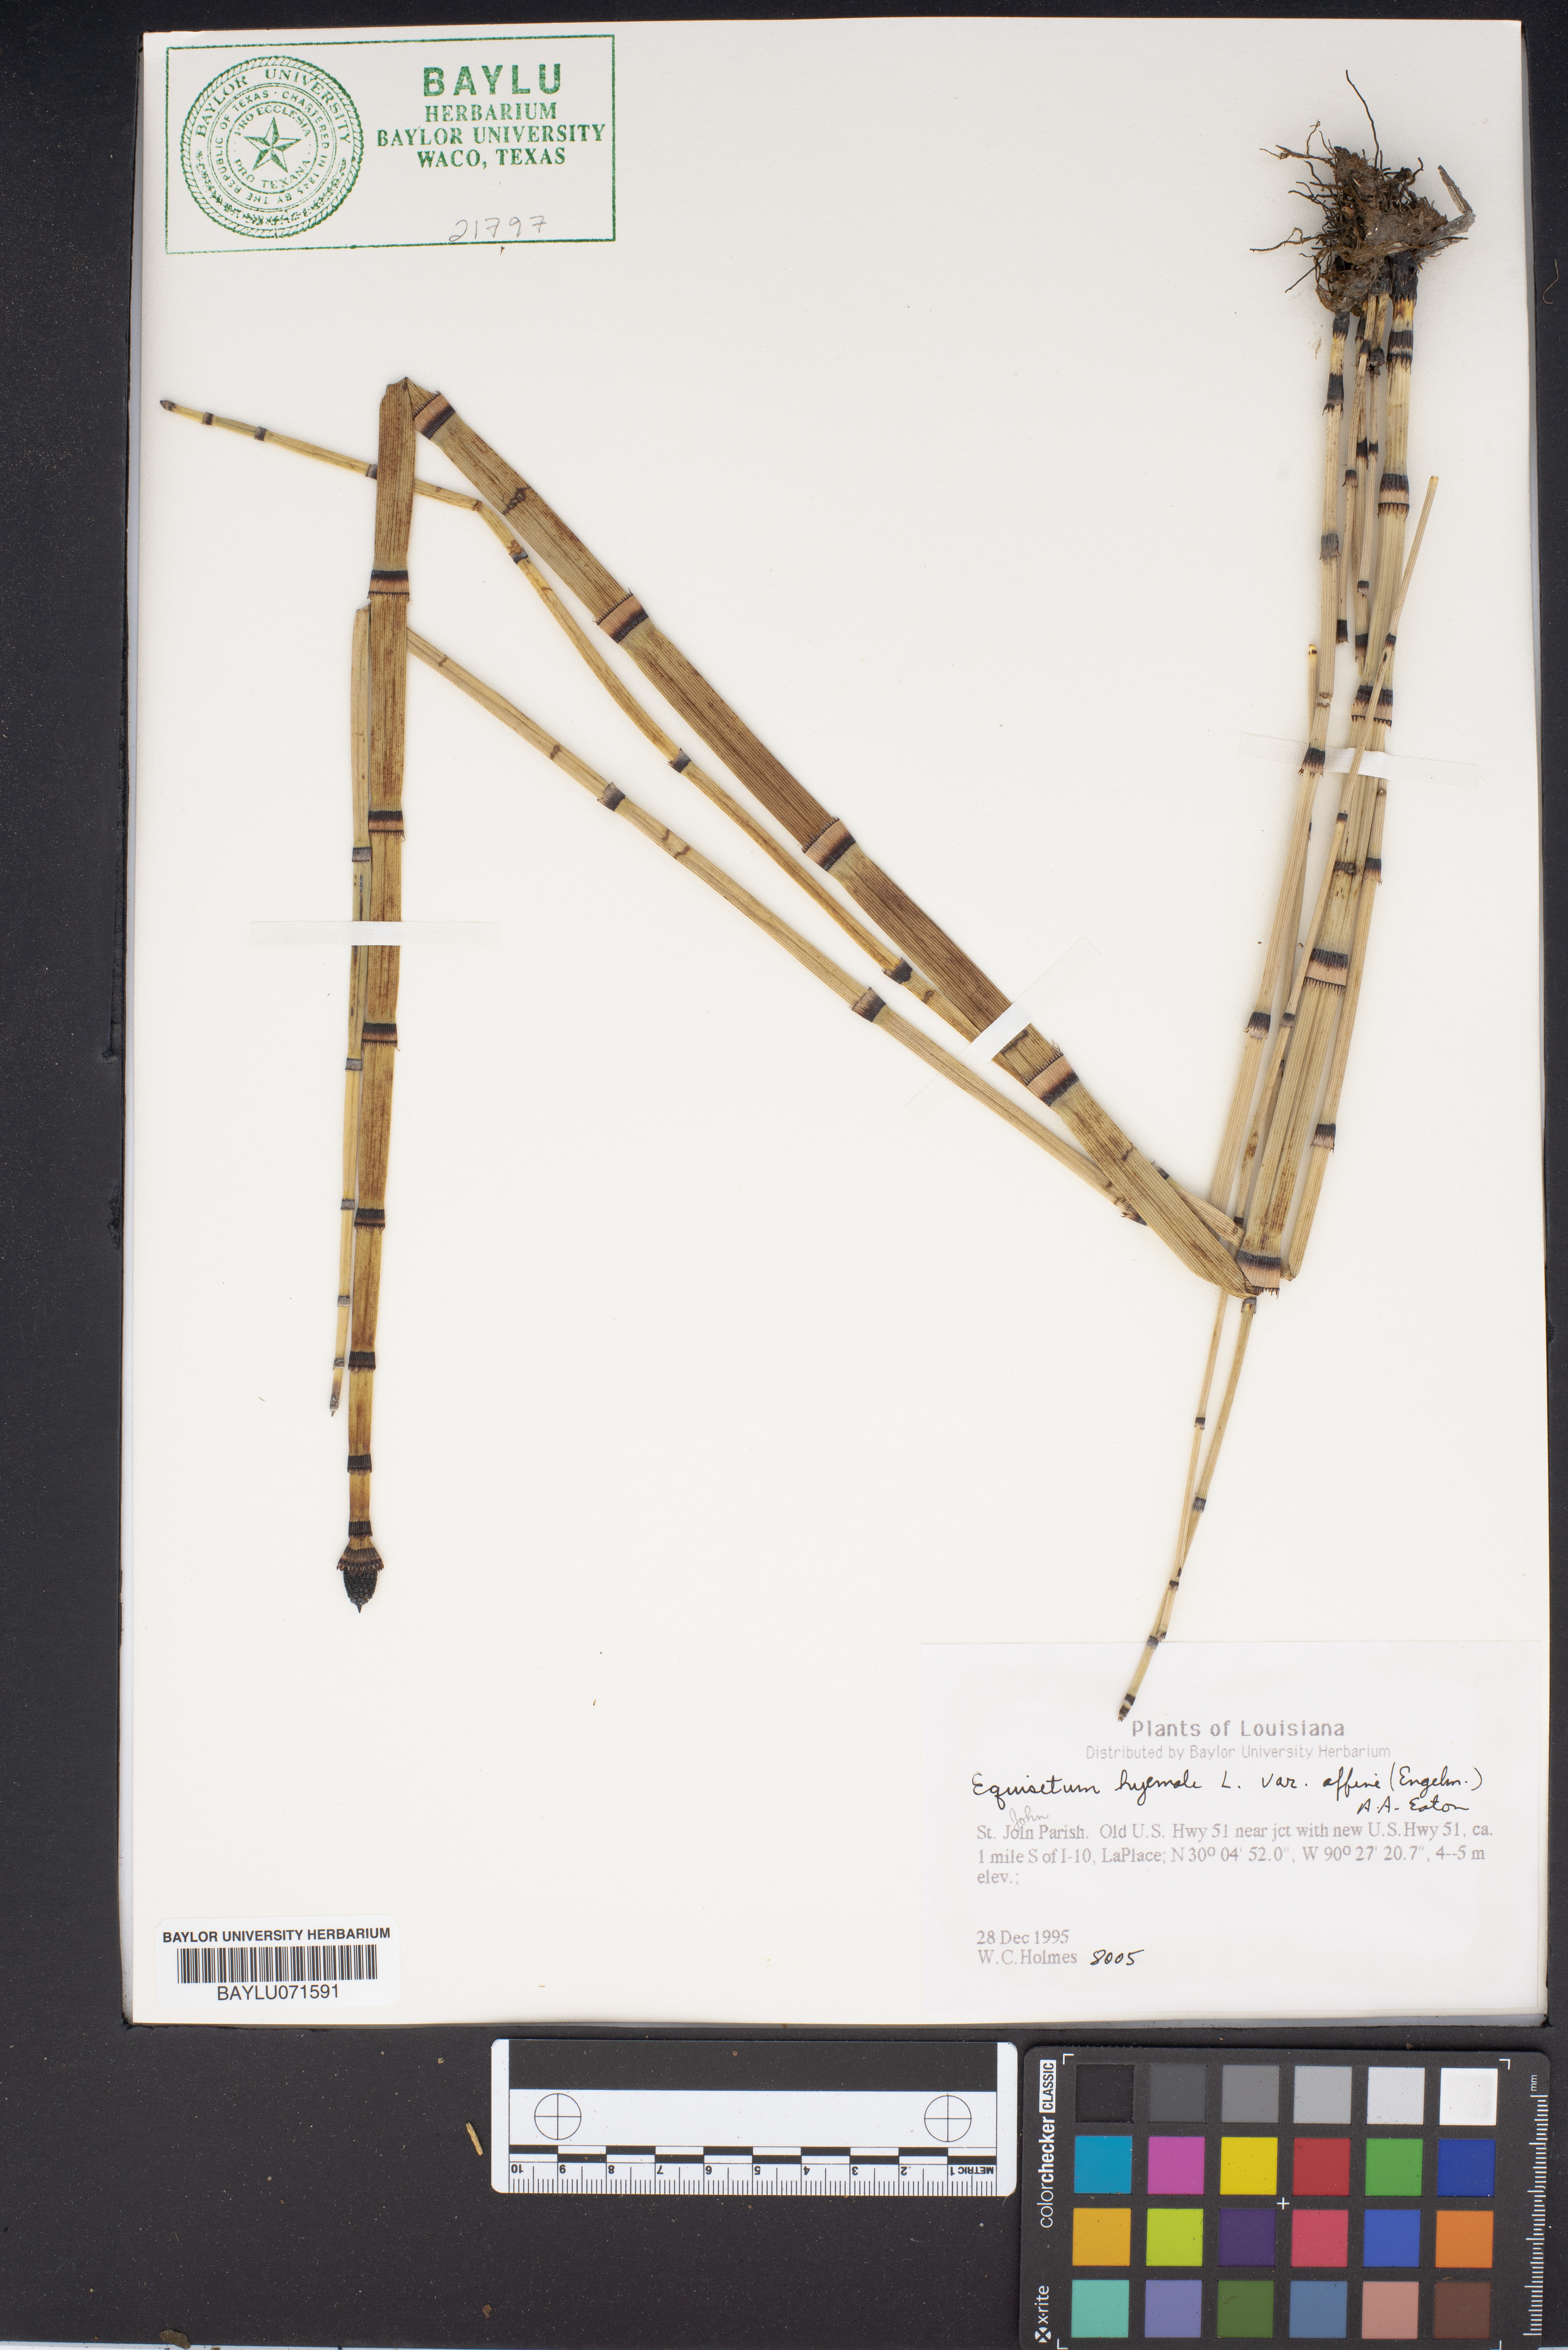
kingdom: Plantae
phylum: Tracheophyta
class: Polypodiopsida
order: Equisetales
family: Equisetaceae
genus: Equisetum
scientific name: Equisetum praealtum
